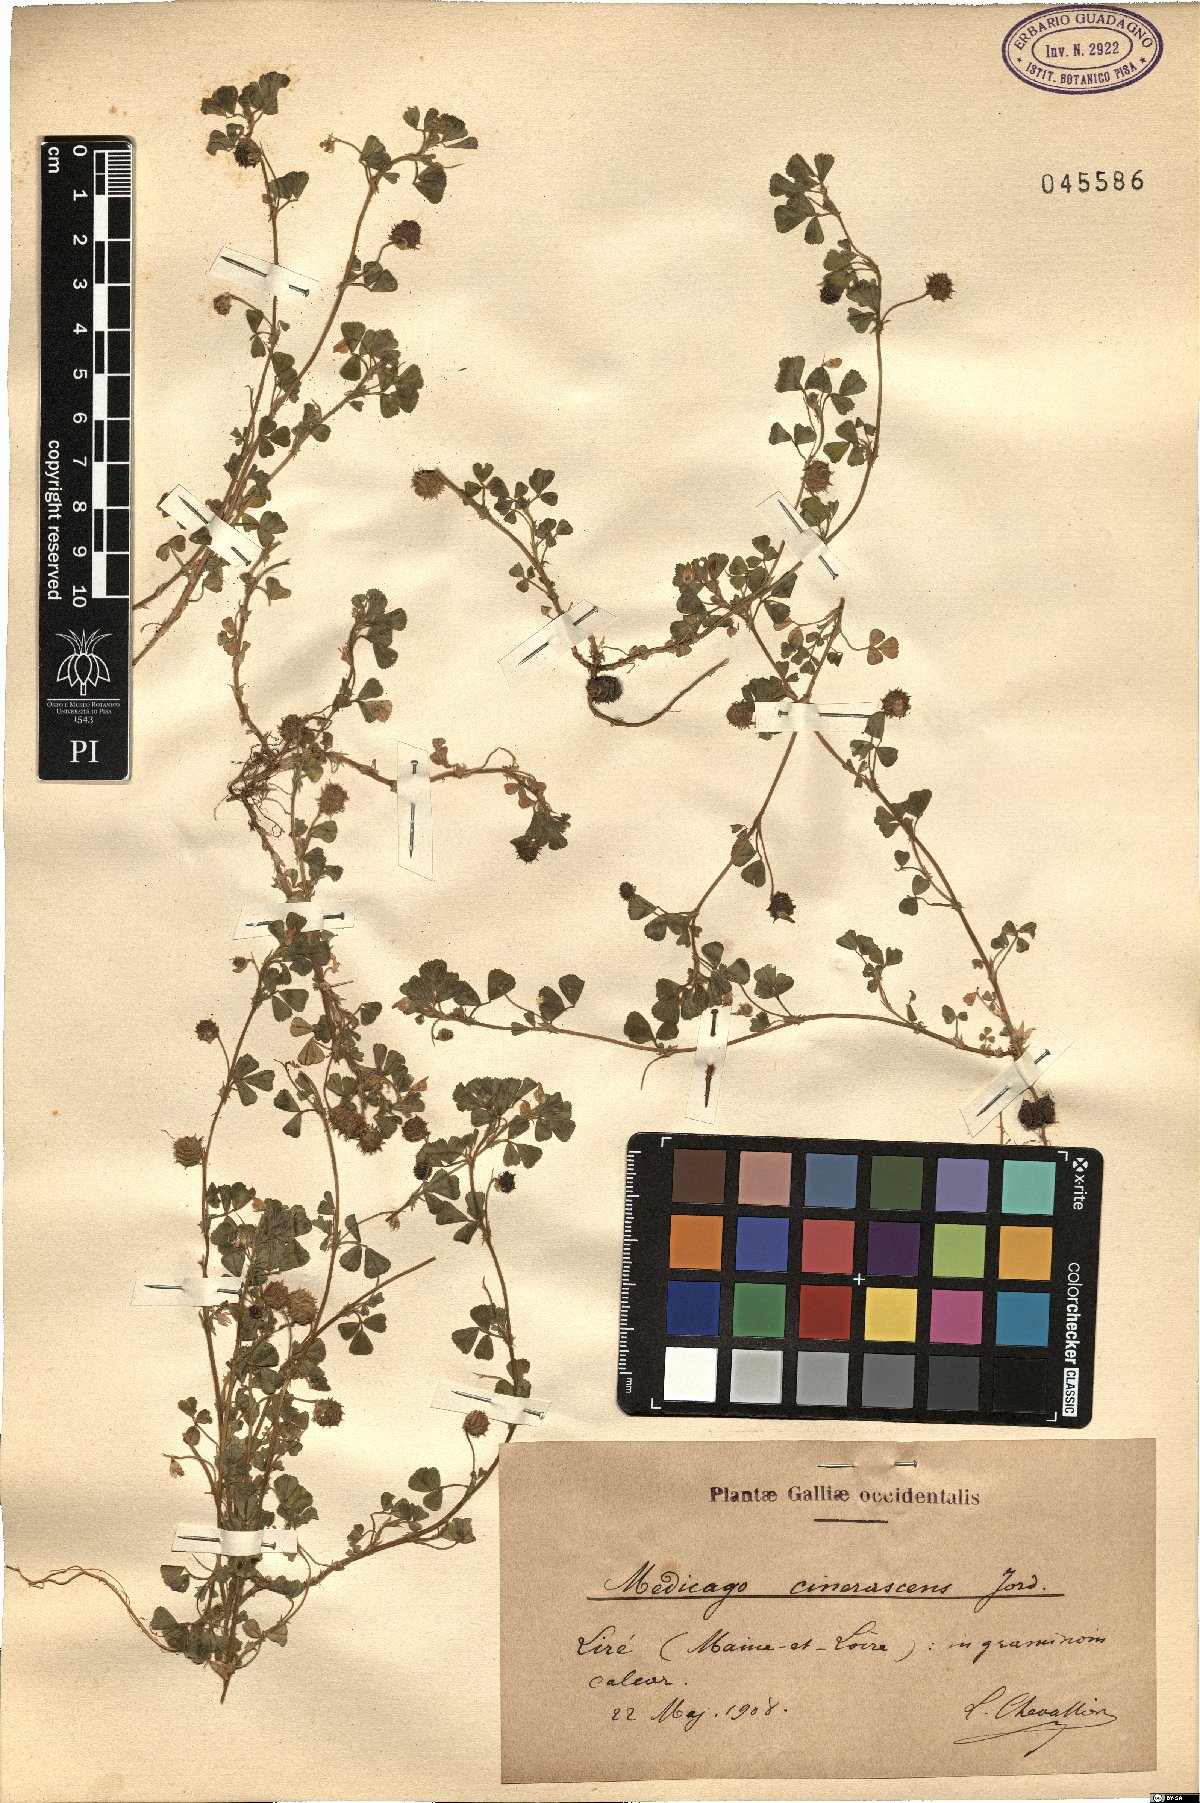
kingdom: Plantae
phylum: Tracheophyta
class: Magnoliopsida
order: Fabales
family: Fabaceae
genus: Medicago
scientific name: Medicago rigidula
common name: Tifton medic
